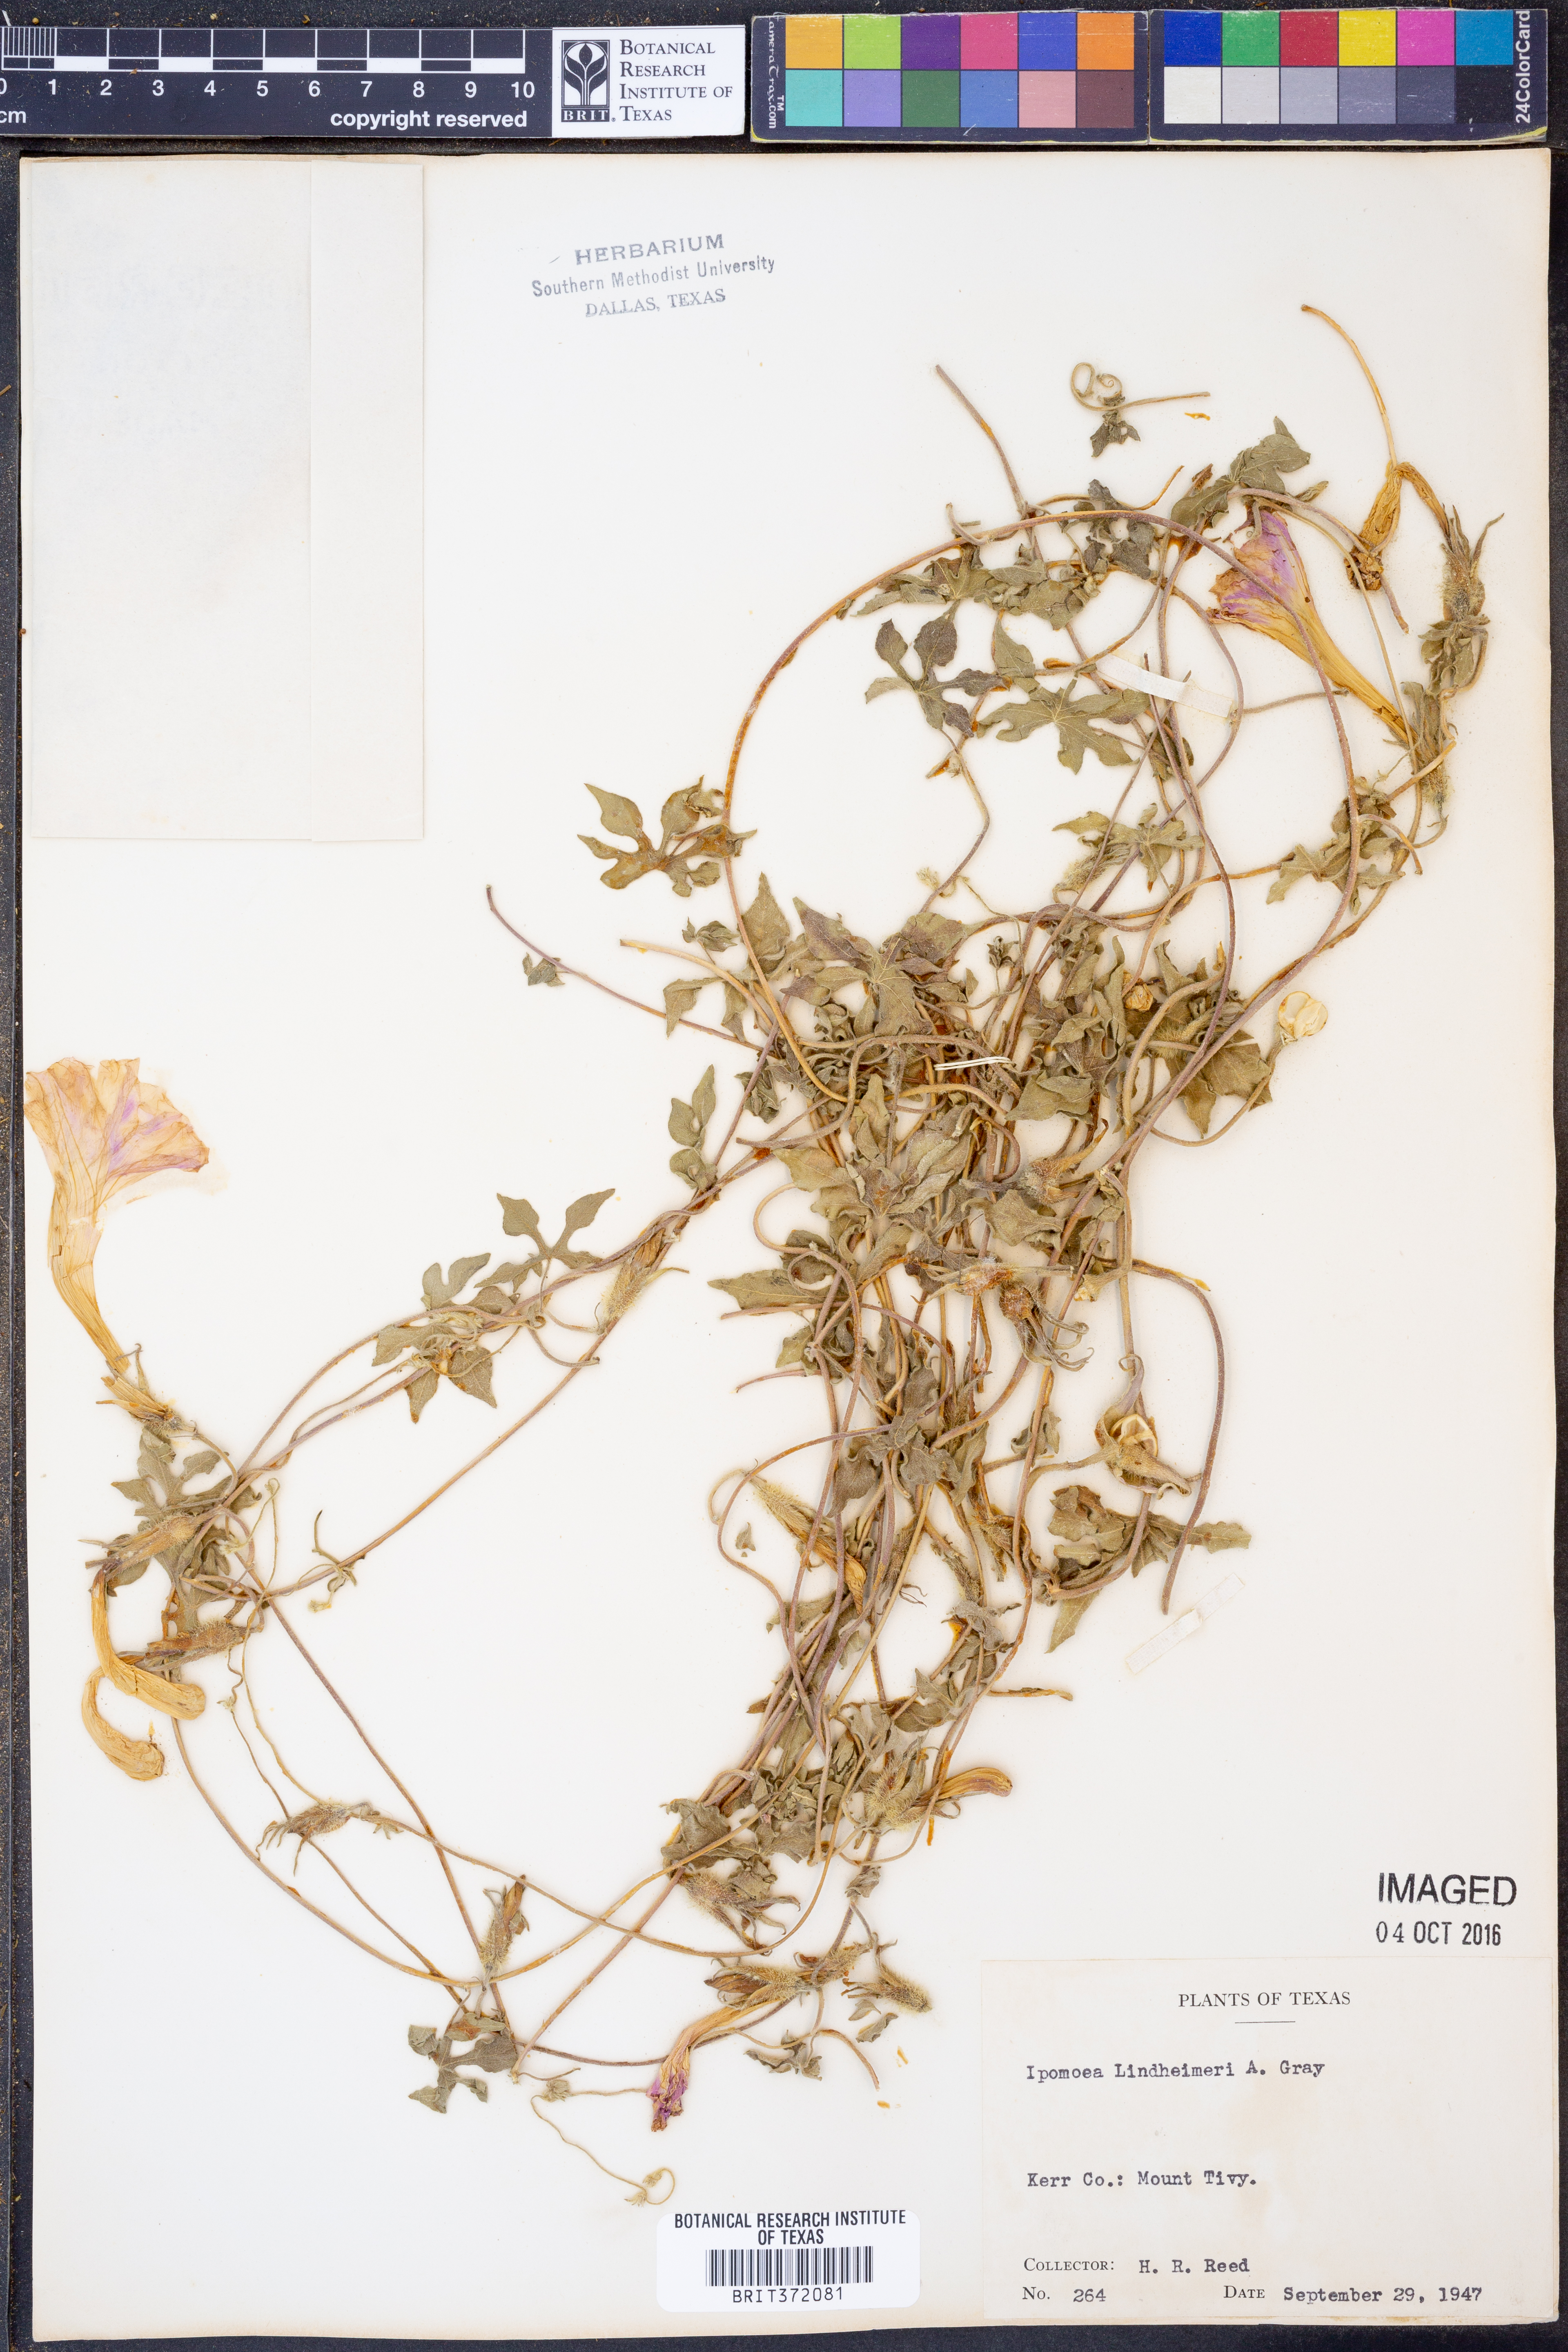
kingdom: Plantae
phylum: Tracheophyta
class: Magnoliopsida
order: Solanales
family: Convolvulaceae
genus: Ipomoea
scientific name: Ipomoea lindheimeri
